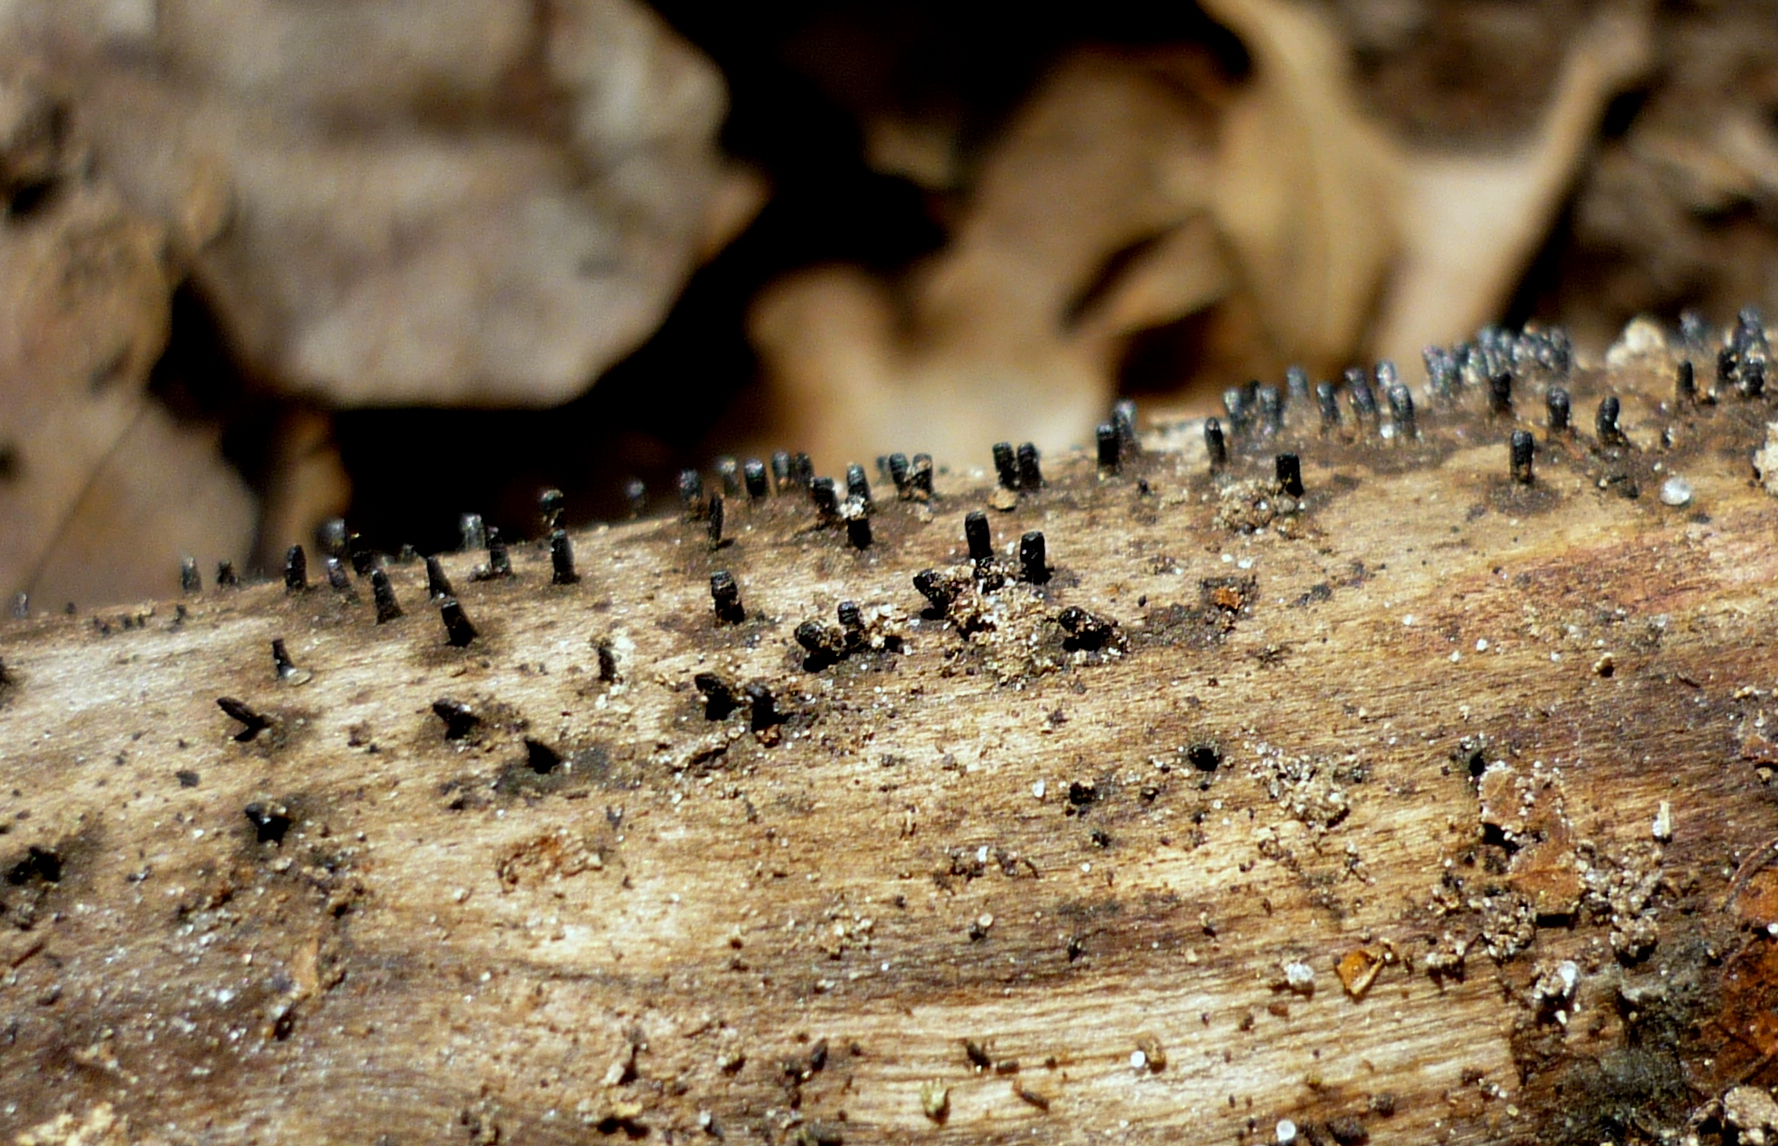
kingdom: Fungi
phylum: Ascomycota
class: Eurotiomycetes
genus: Glyphium
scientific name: Glyphium elatum
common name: kuløkse
